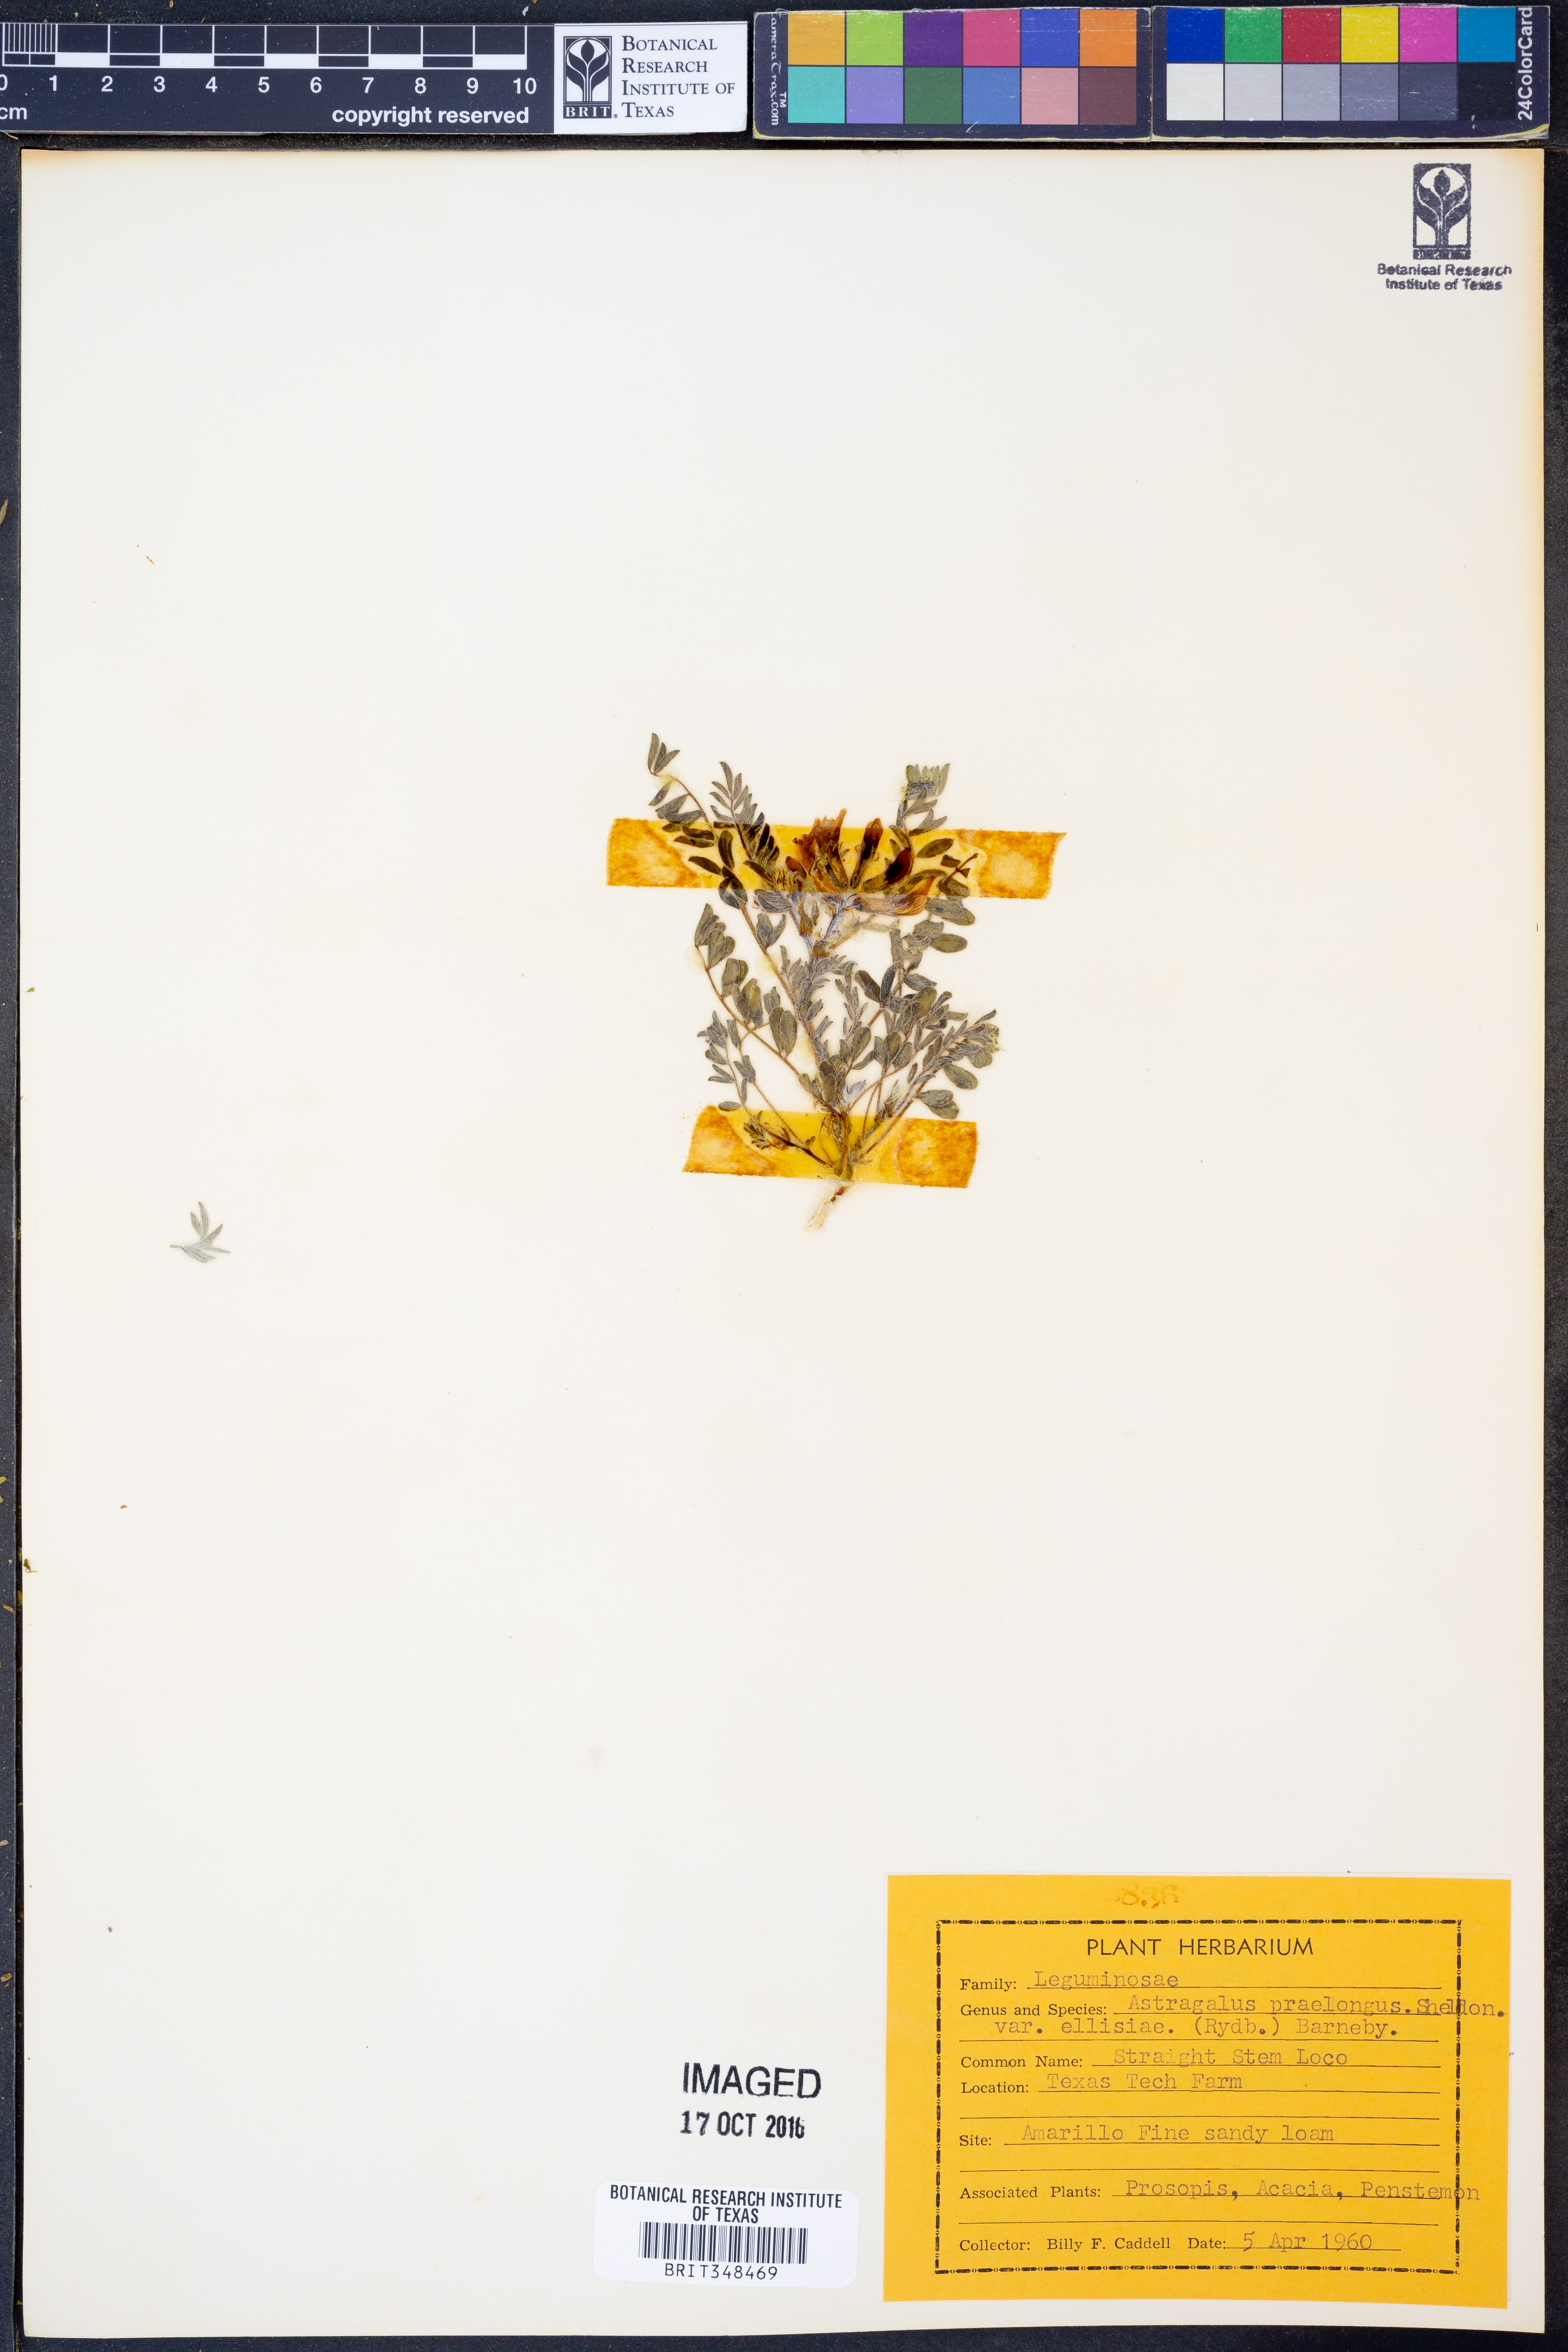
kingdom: Plantae
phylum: Tracheophyta
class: Magnoliopsida
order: Fabales
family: Fabaceae
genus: Astragalus
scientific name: Astragalus praelongus
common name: Stinking milk-vetch
